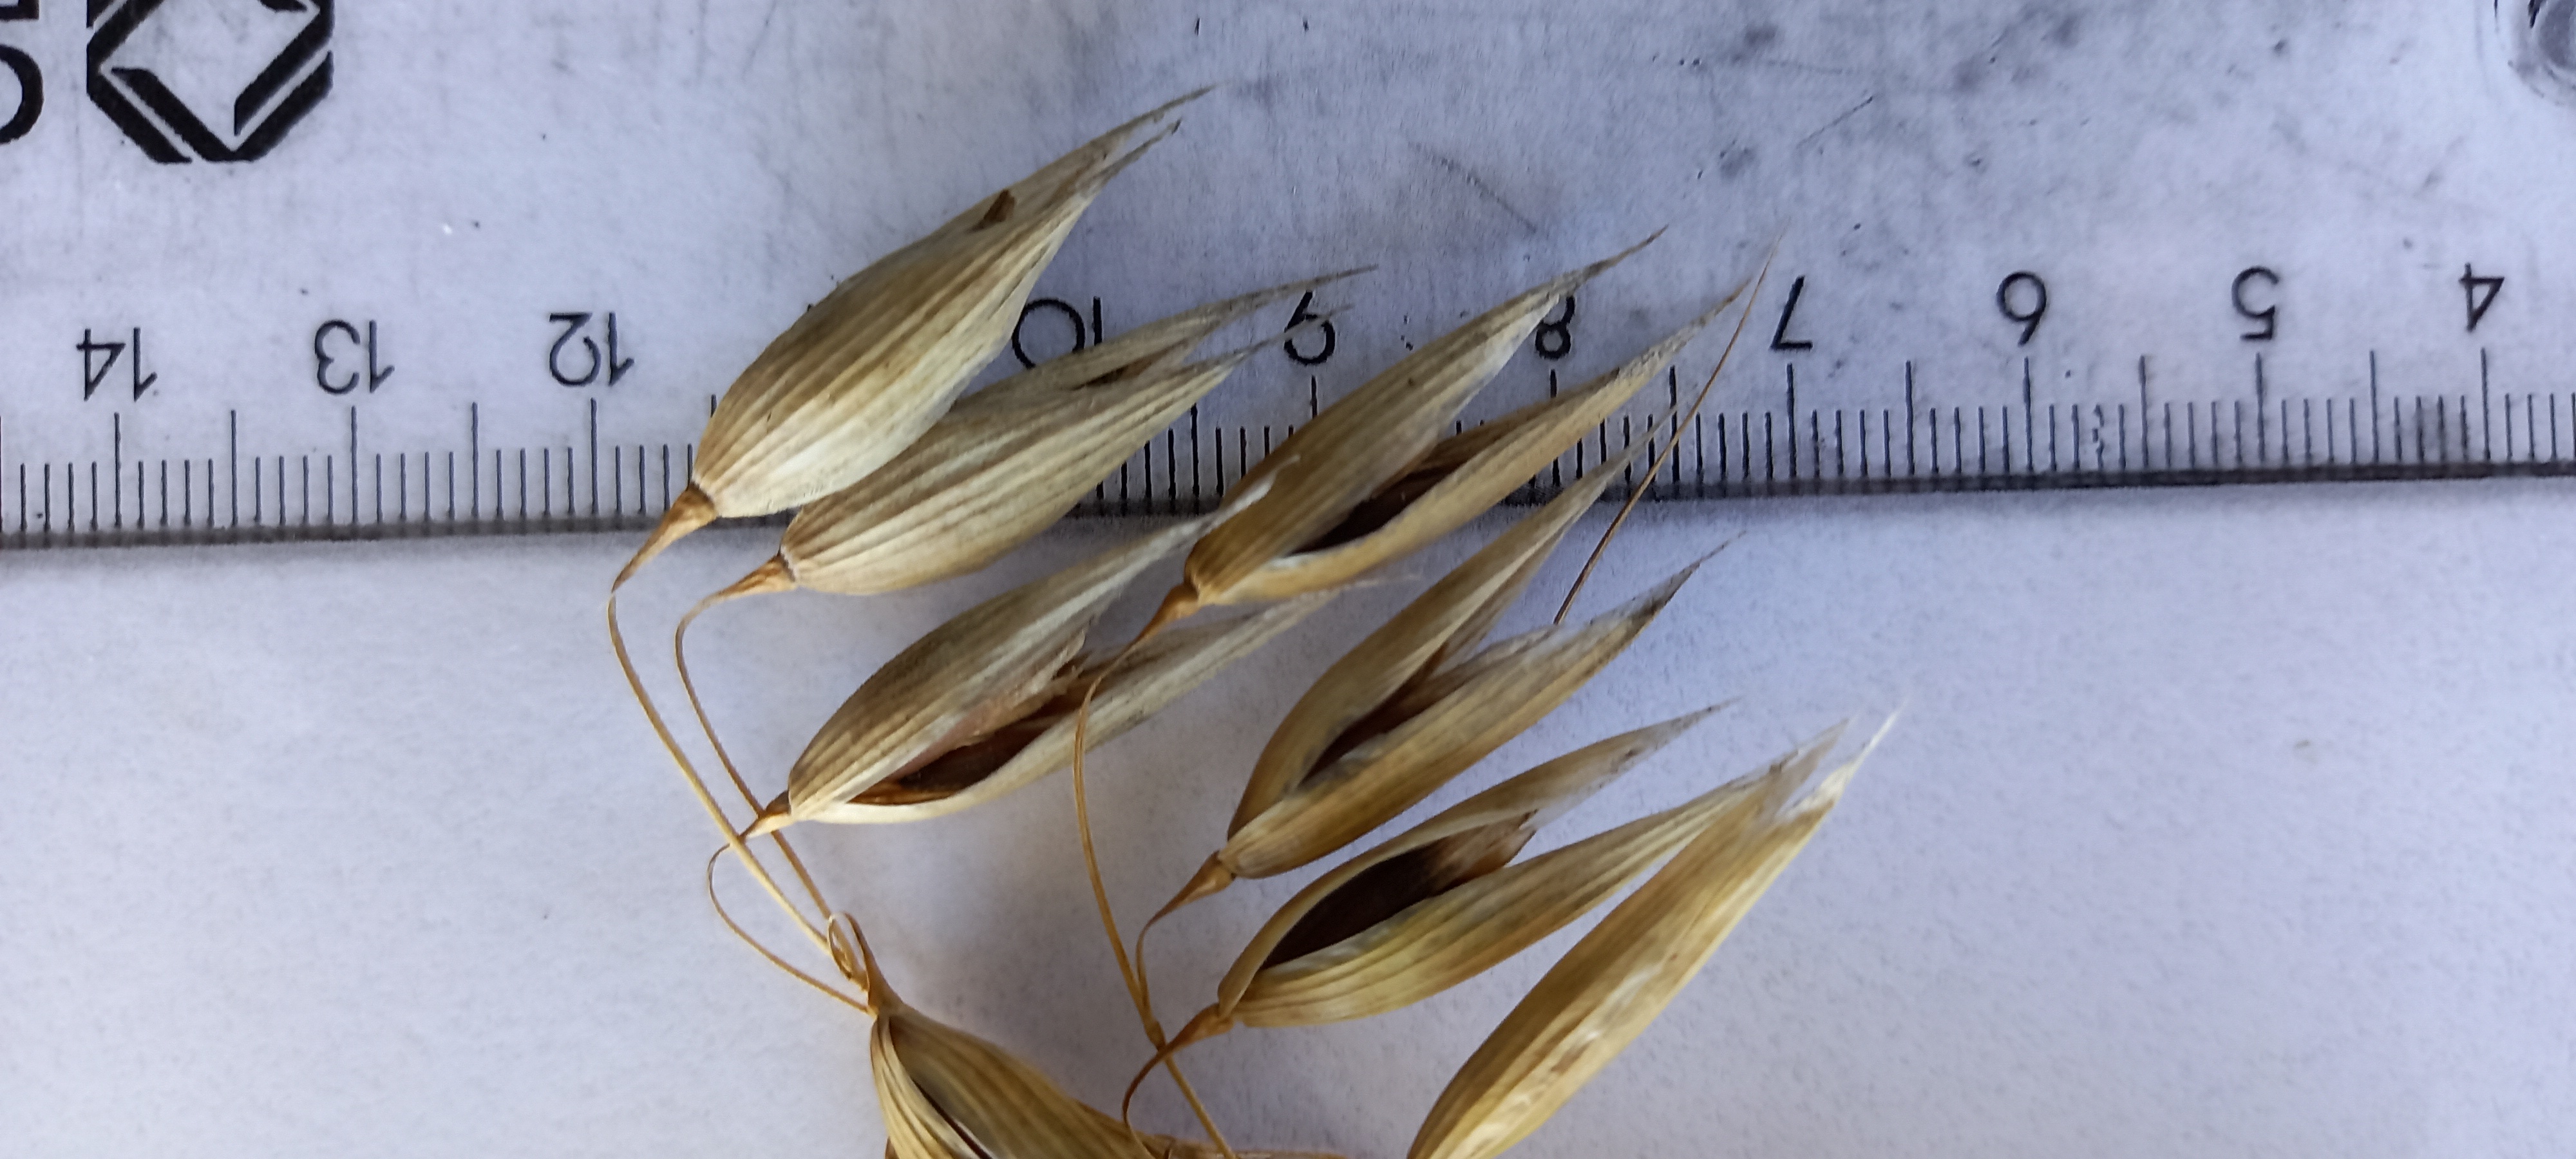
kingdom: Plantae
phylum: Tracheophyta
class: Liliopsida
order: Poales
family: Poaceae
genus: Avena
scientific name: Avena sativa
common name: Oat
